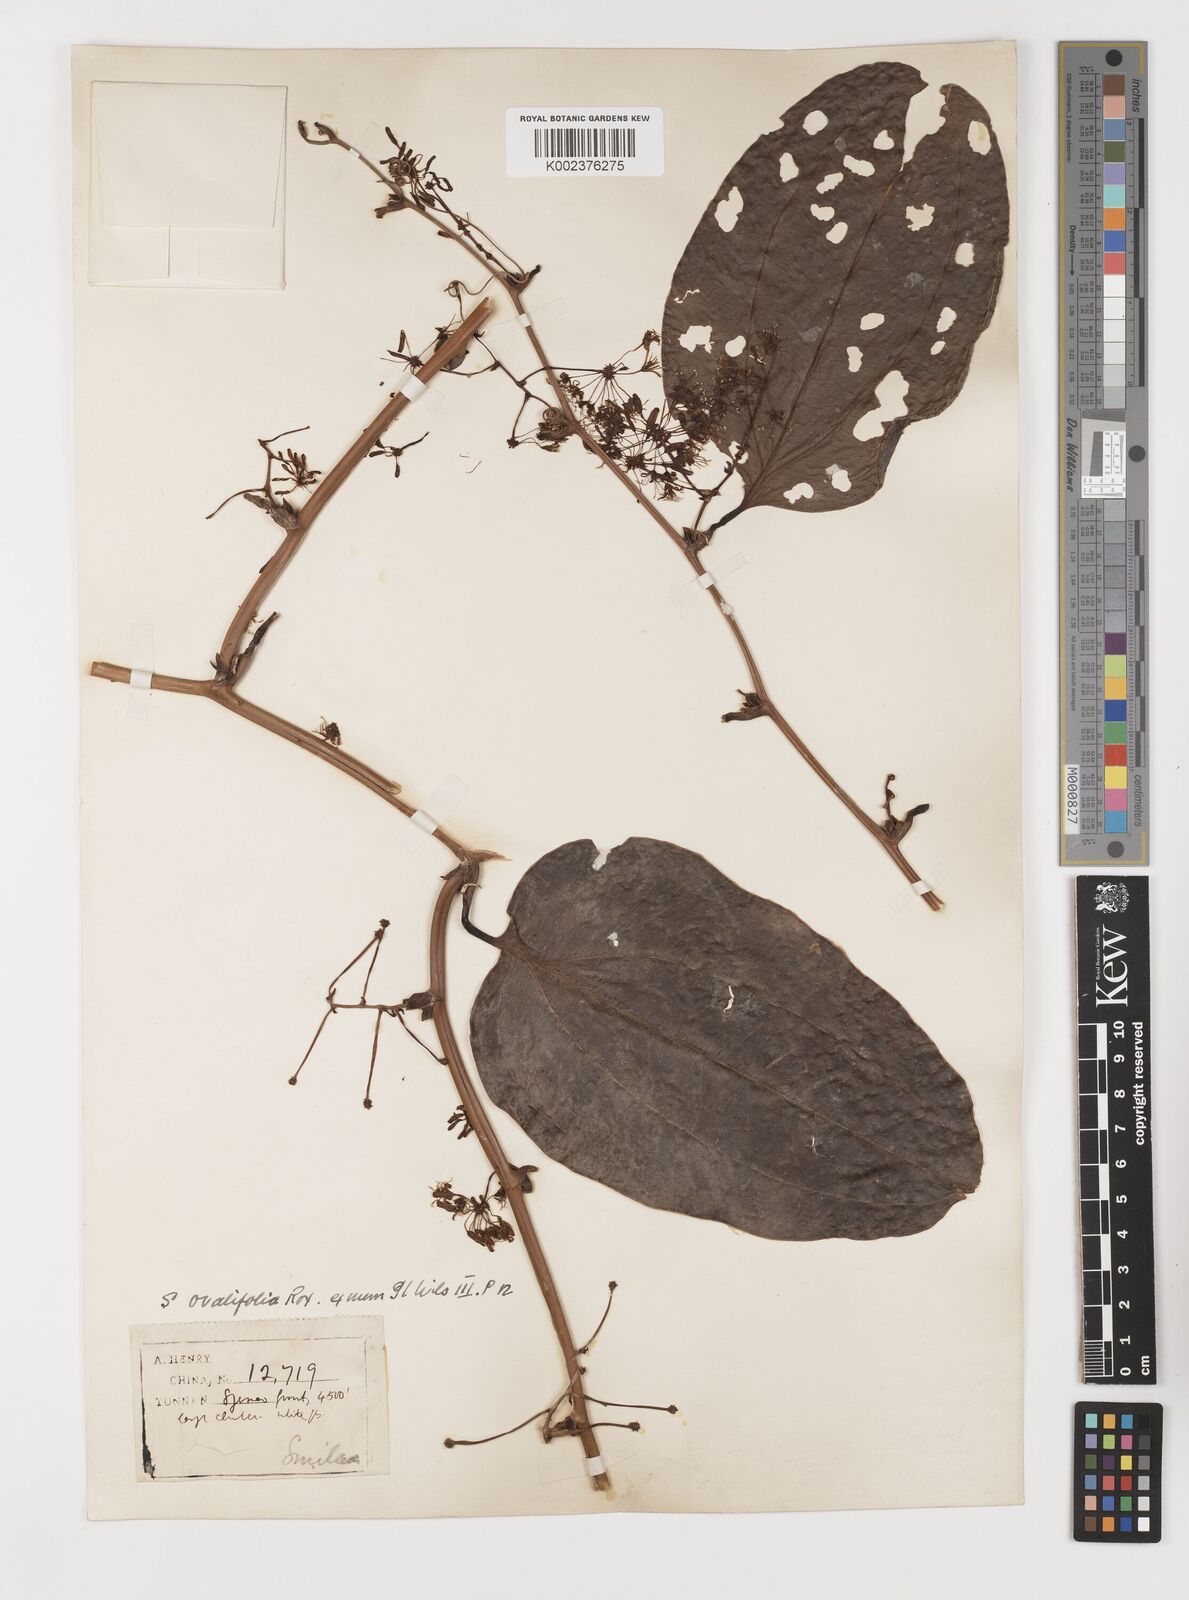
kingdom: Plantae
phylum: Tracheophyta
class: Liliopsida
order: Liliales
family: Smilacaceae
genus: Smilax
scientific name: Smilax megacarpa
